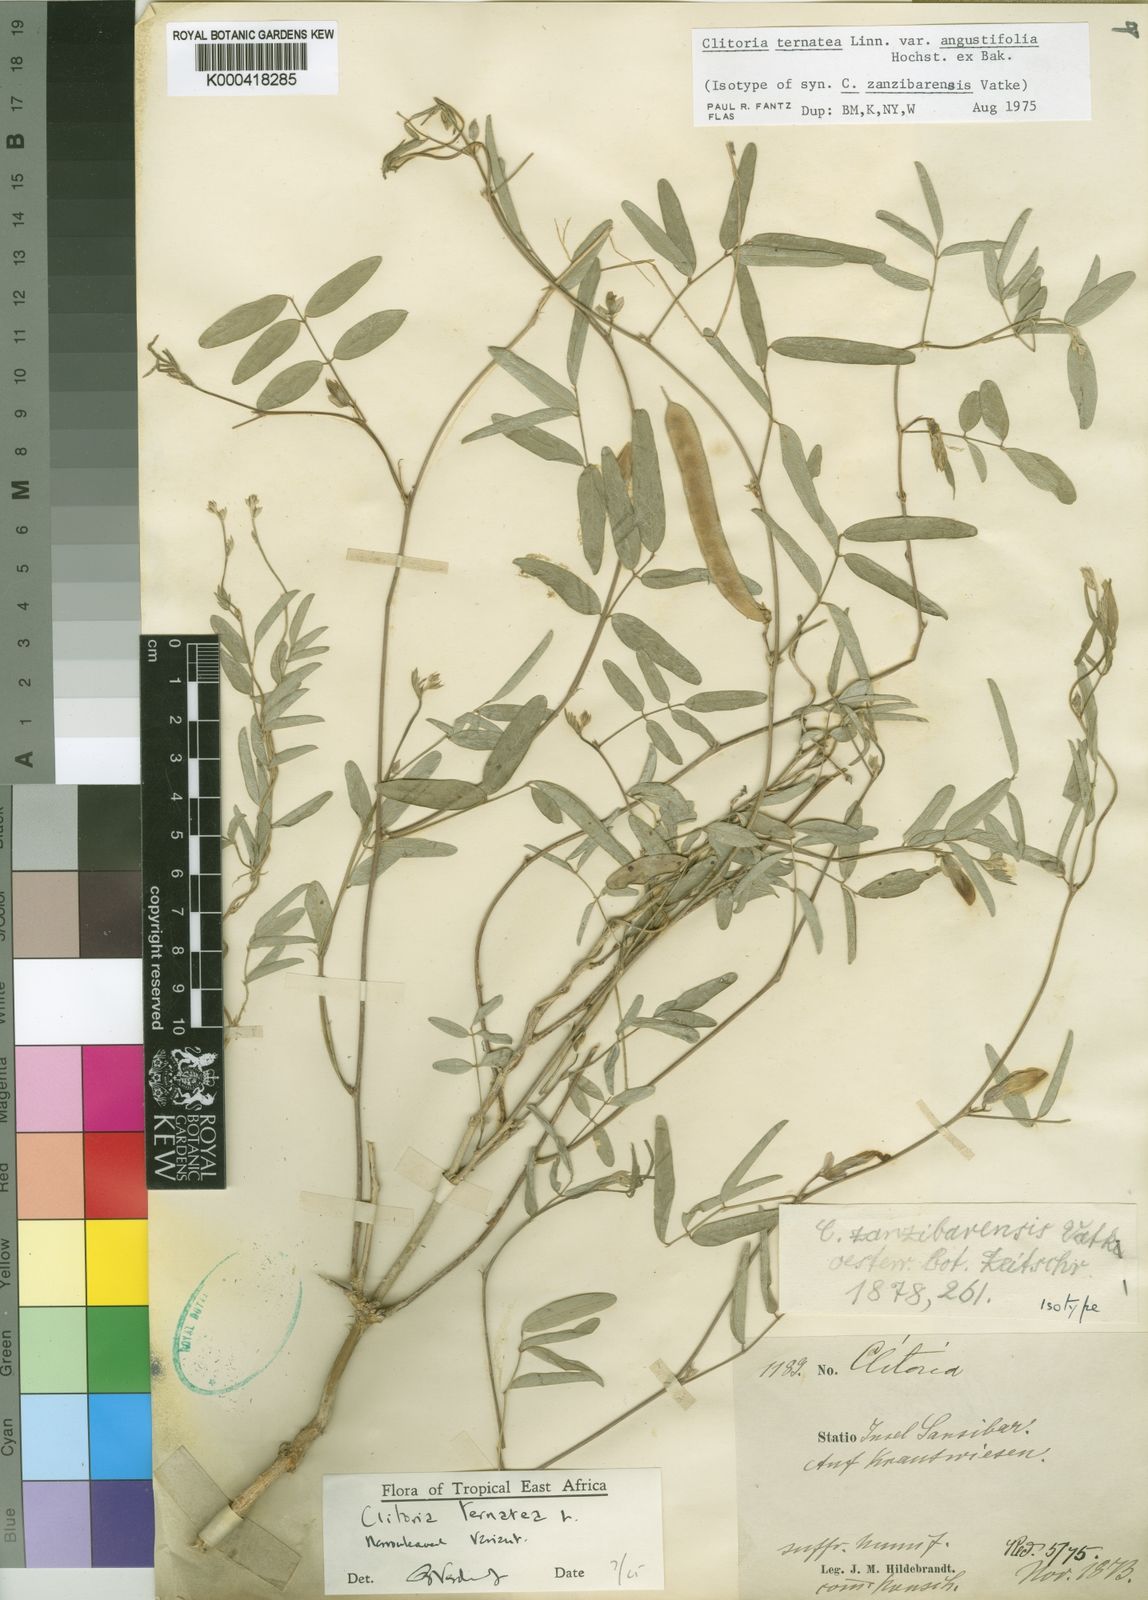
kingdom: Plantae
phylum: Tracheophyta
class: Magnoliopsida
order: Fabales
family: Fabaceae
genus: Clitoria
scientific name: Clitoria ternatea
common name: Asian pigeonwings
